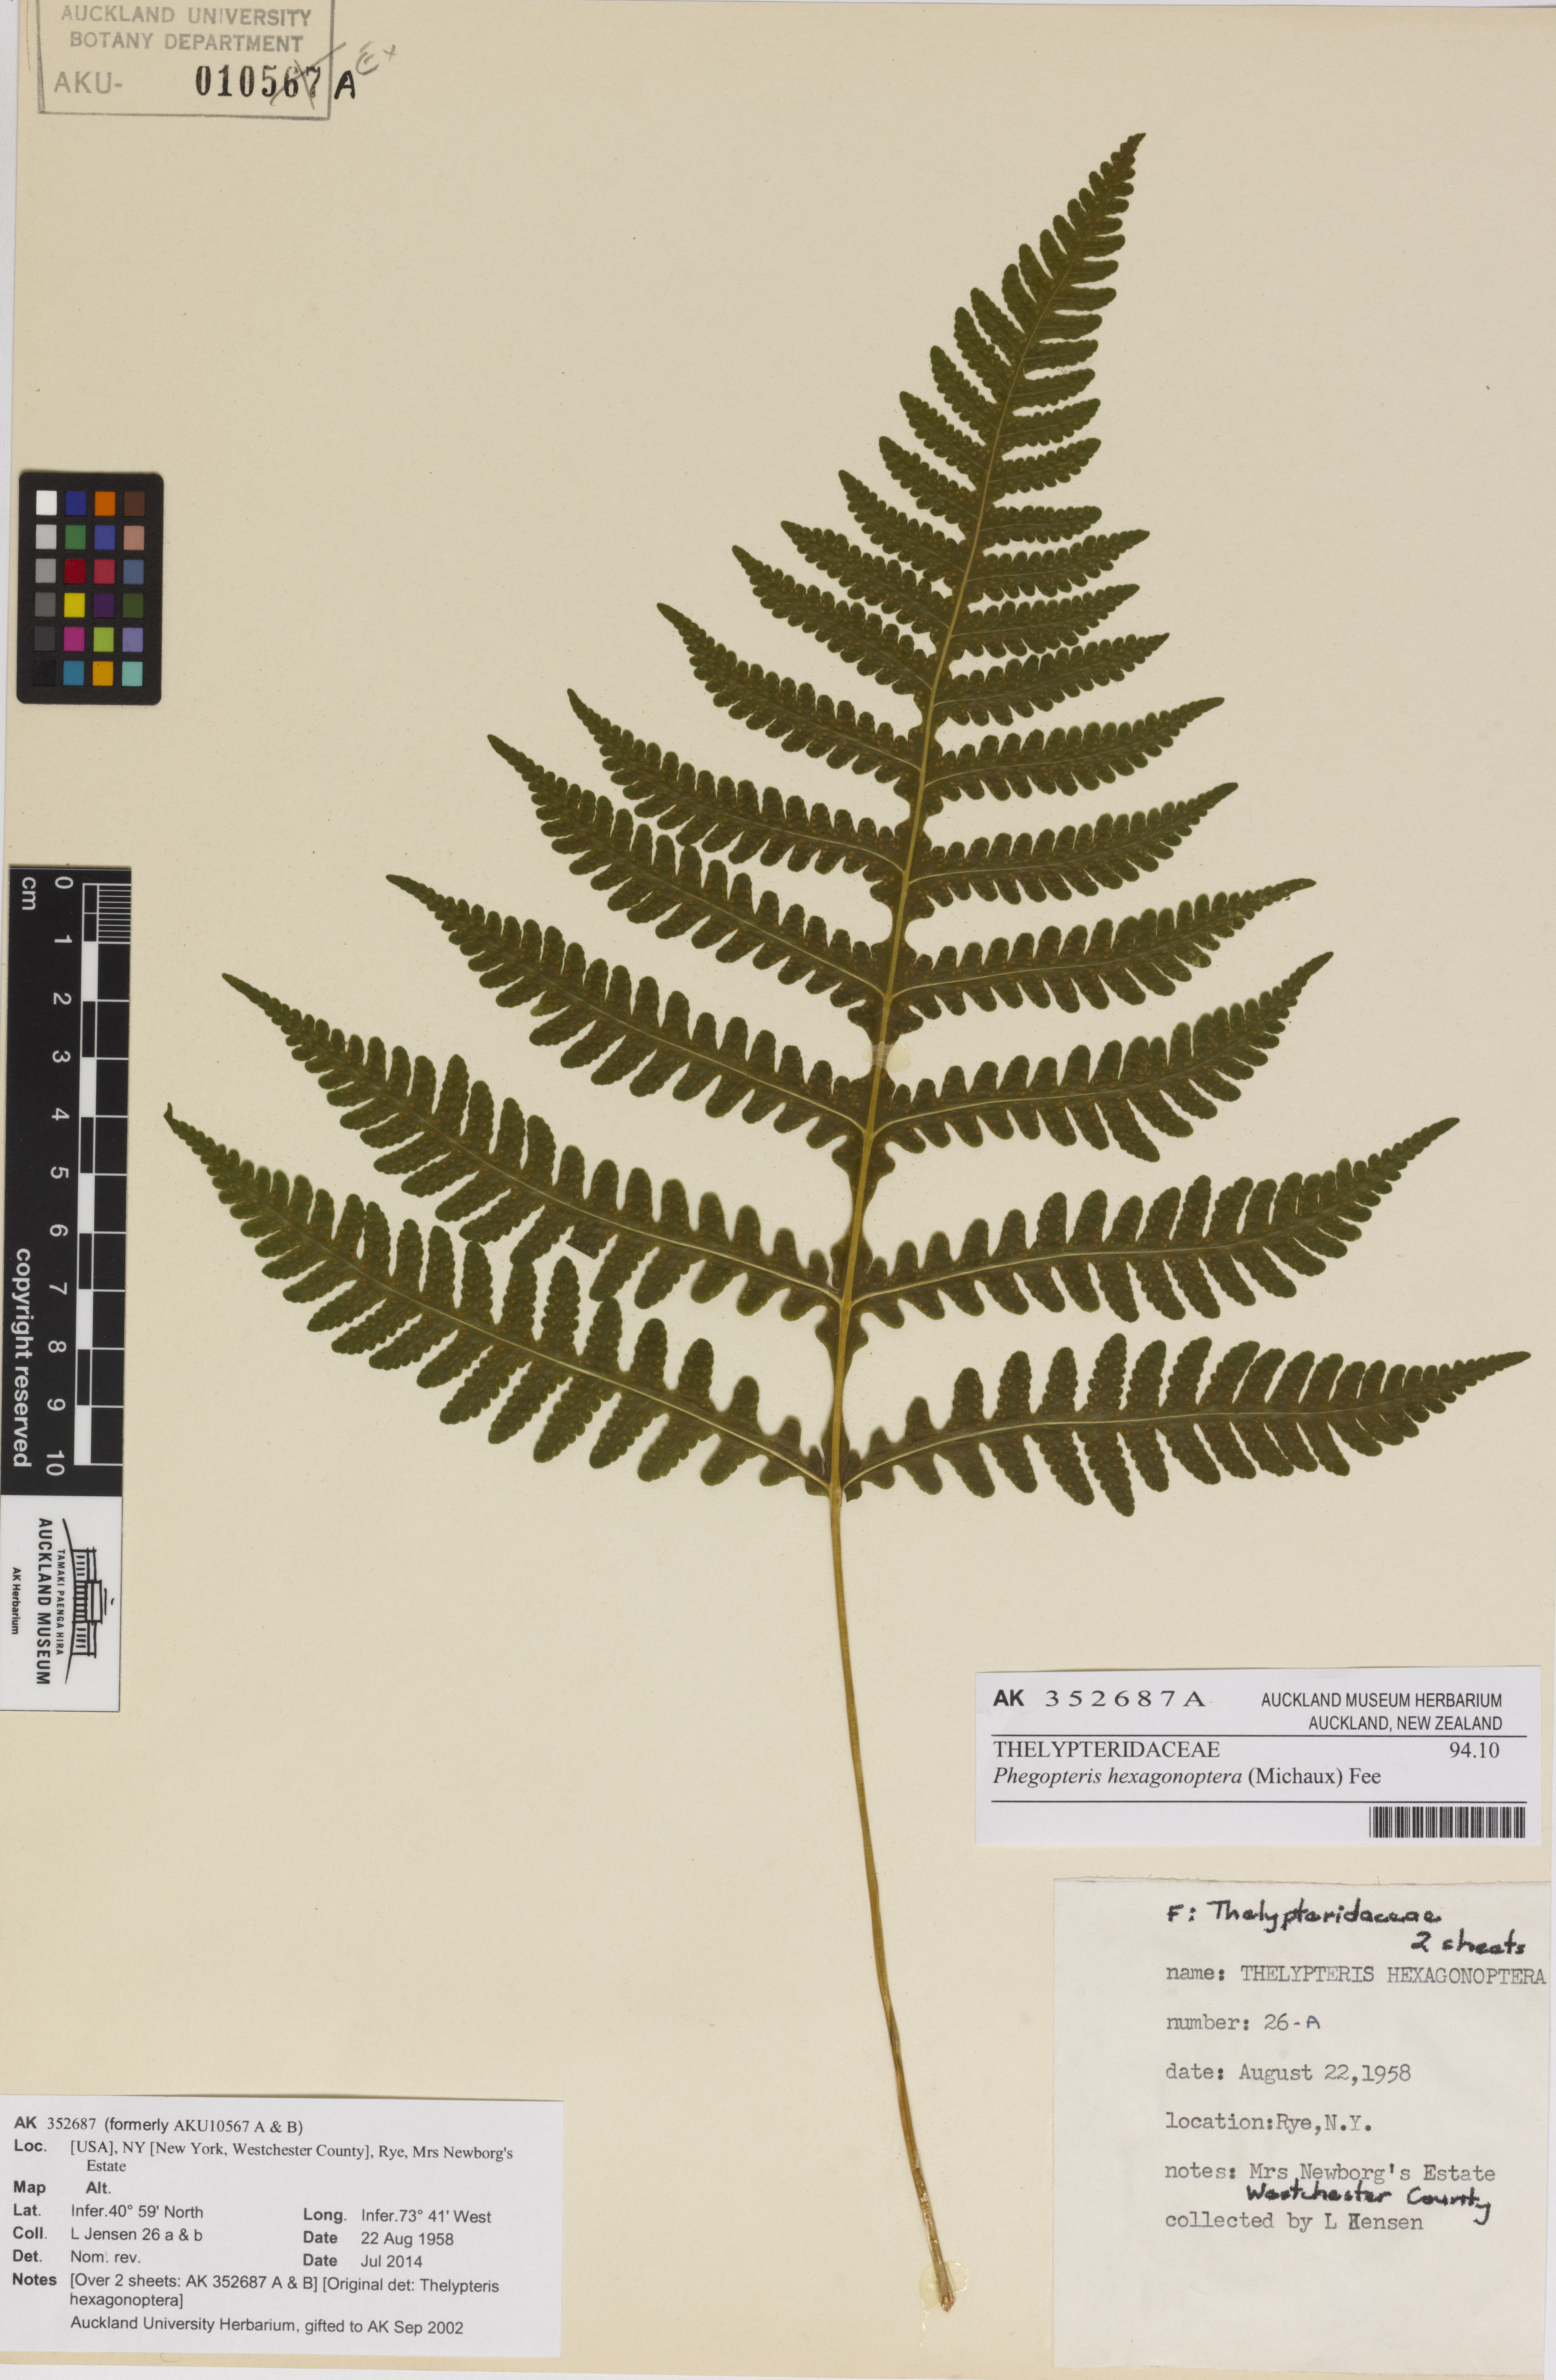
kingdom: Plantae
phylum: Tracheophyta
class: Polypodiopsida
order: Polypodiales
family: Thelypteridaceae
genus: Phegopteris
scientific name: Phegopteris hexagonoptera
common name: Broad beech fern
